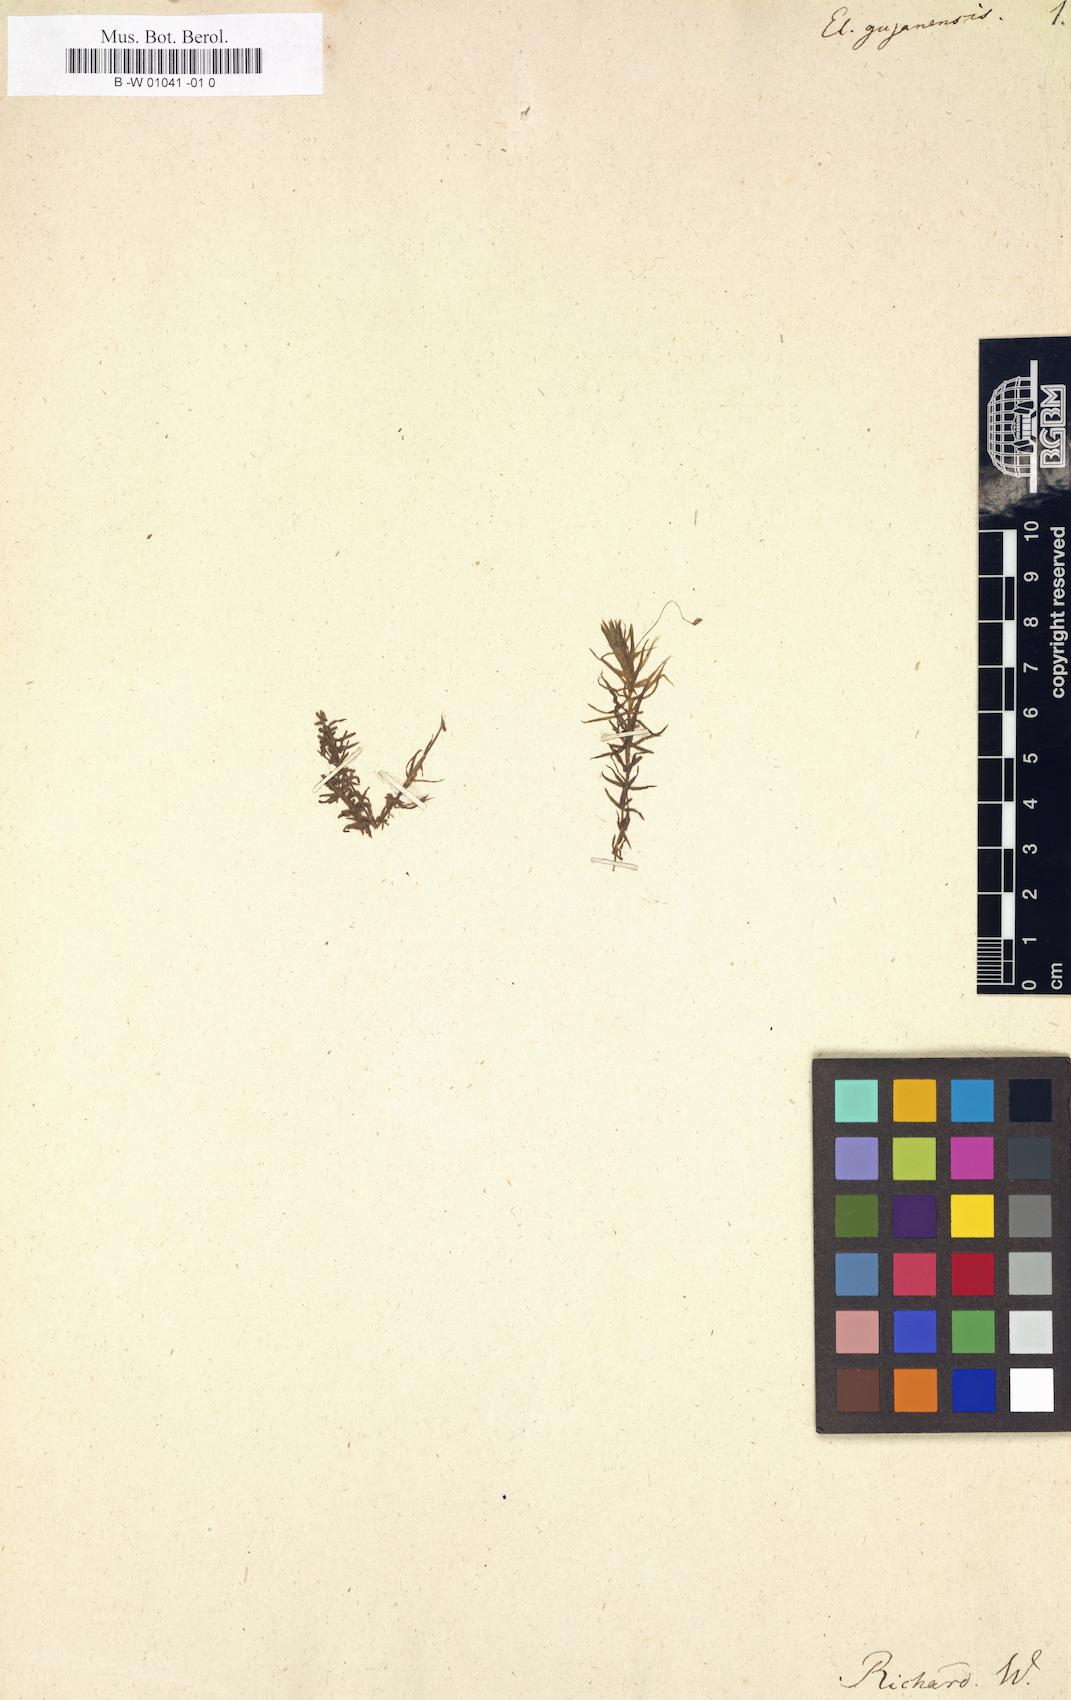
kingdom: Plantae
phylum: Tracheophyta
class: Liliopsida
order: Alismatales
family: Hydrocharitaceae
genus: Elodea
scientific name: Elodea granatensis
